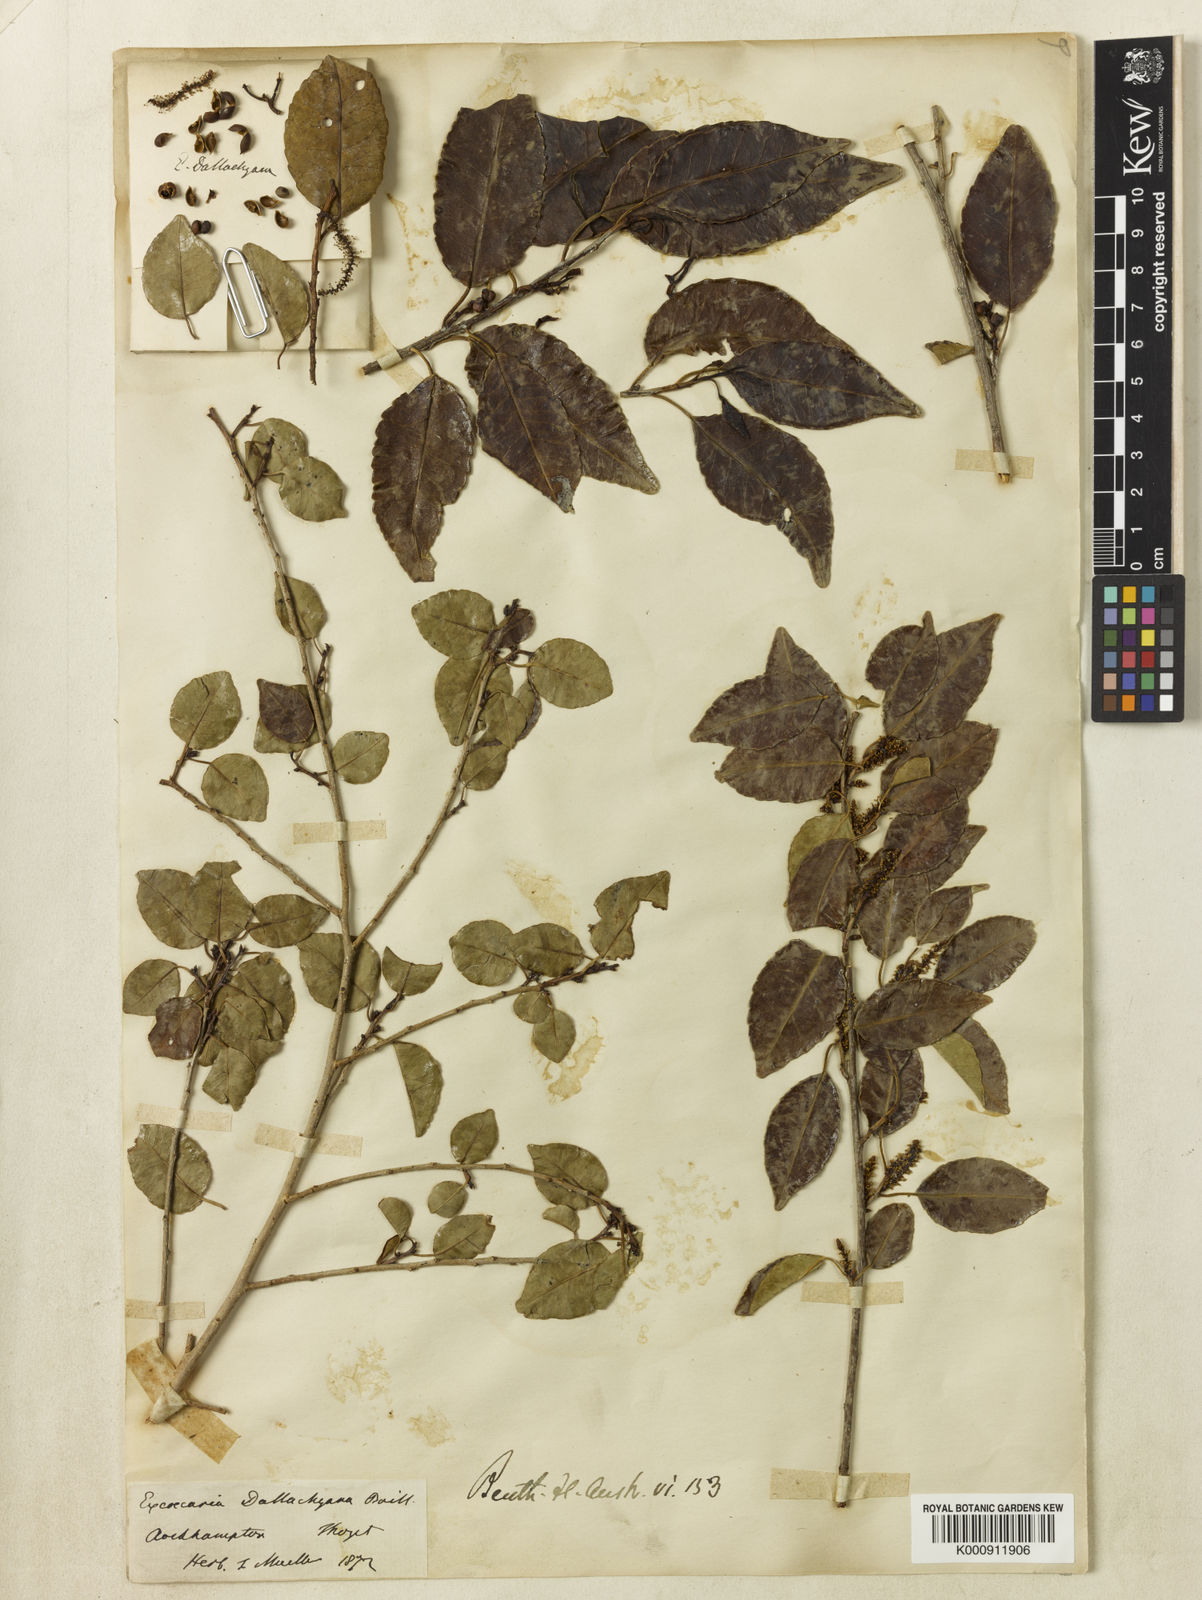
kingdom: Plantae
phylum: Tracheophyta
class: Magnoliopsida
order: Malpighiales
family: Euphorbiaceae
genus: Excoecaria
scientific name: Excoecaria dallachyana
